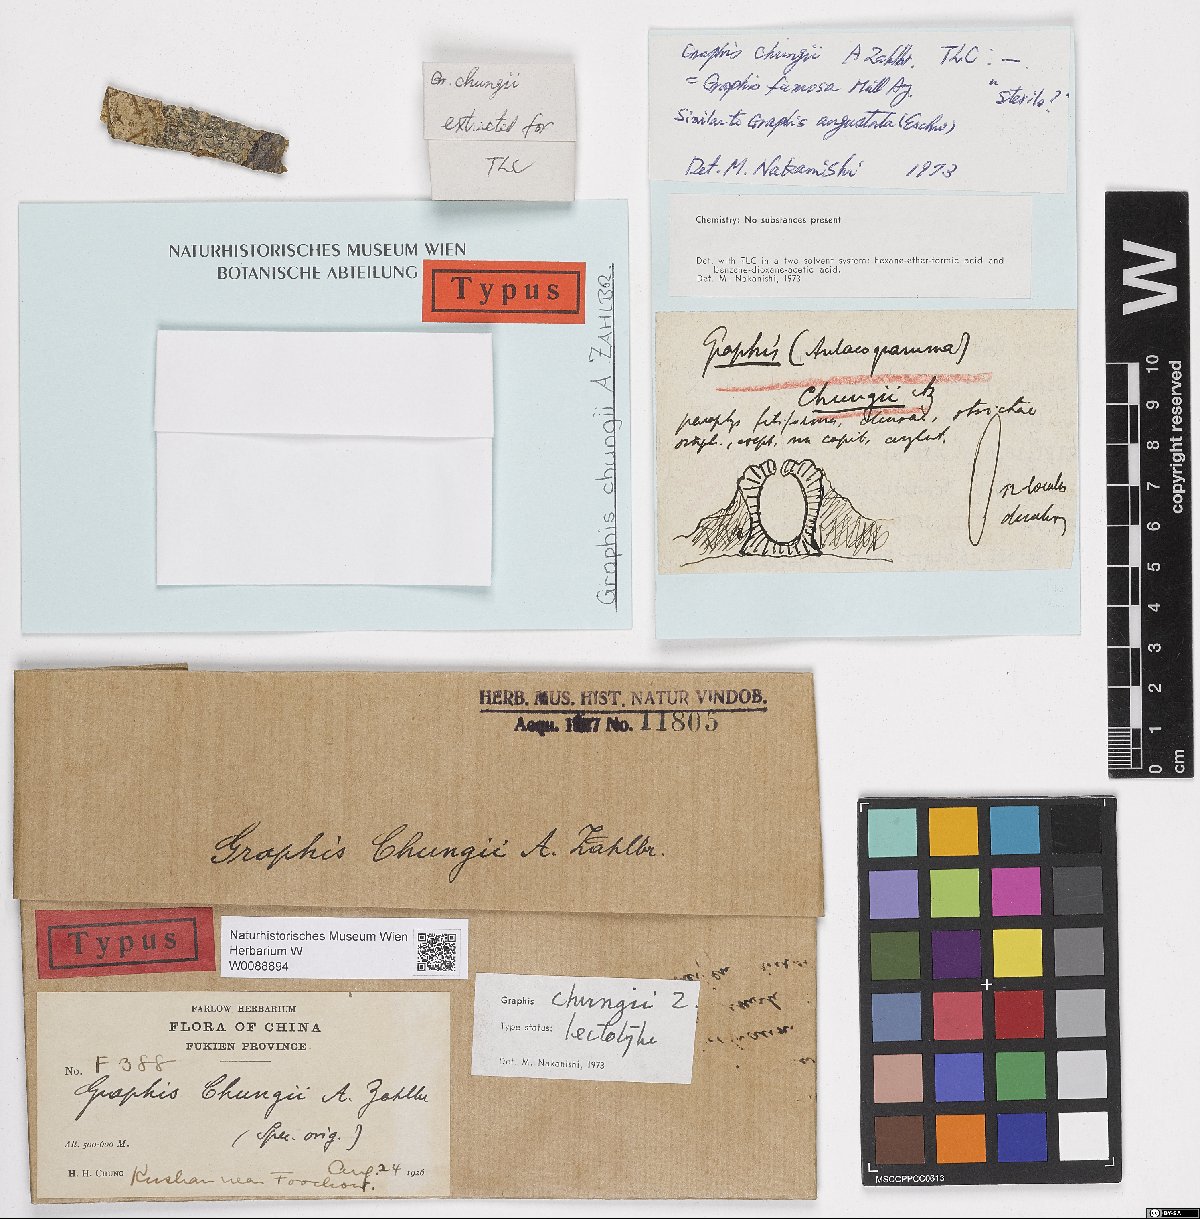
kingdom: Fungi
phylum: Ascomycota
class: Lecanoromycetes
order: Ostropales
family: Graphidaceae
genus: Graphis
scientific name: Graphis
